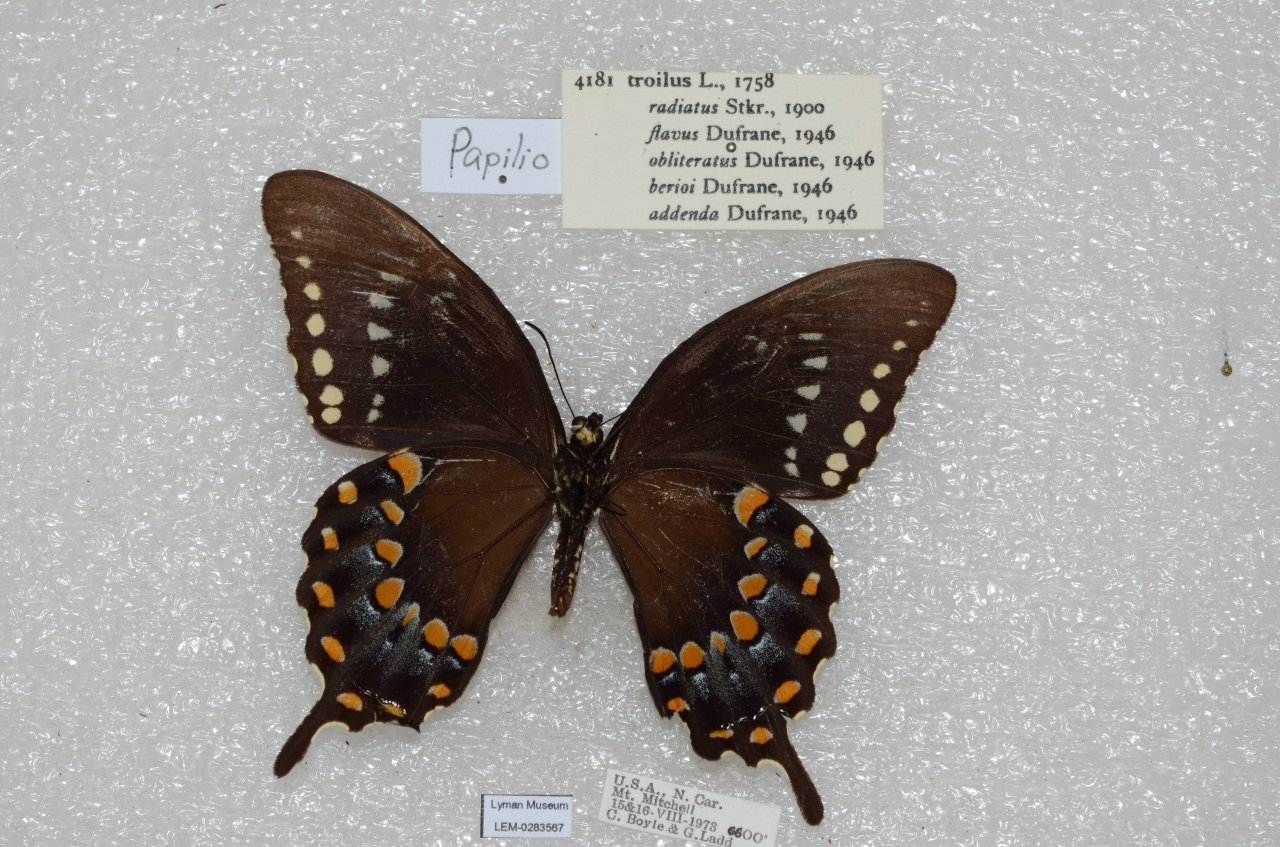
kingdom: Animalia
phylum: Arthropoda
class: Insecta
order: Lepidoptera
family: Papilionidae
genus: Pterourus
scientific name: Pterourus troilus
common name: Spicebush Swallowtail
